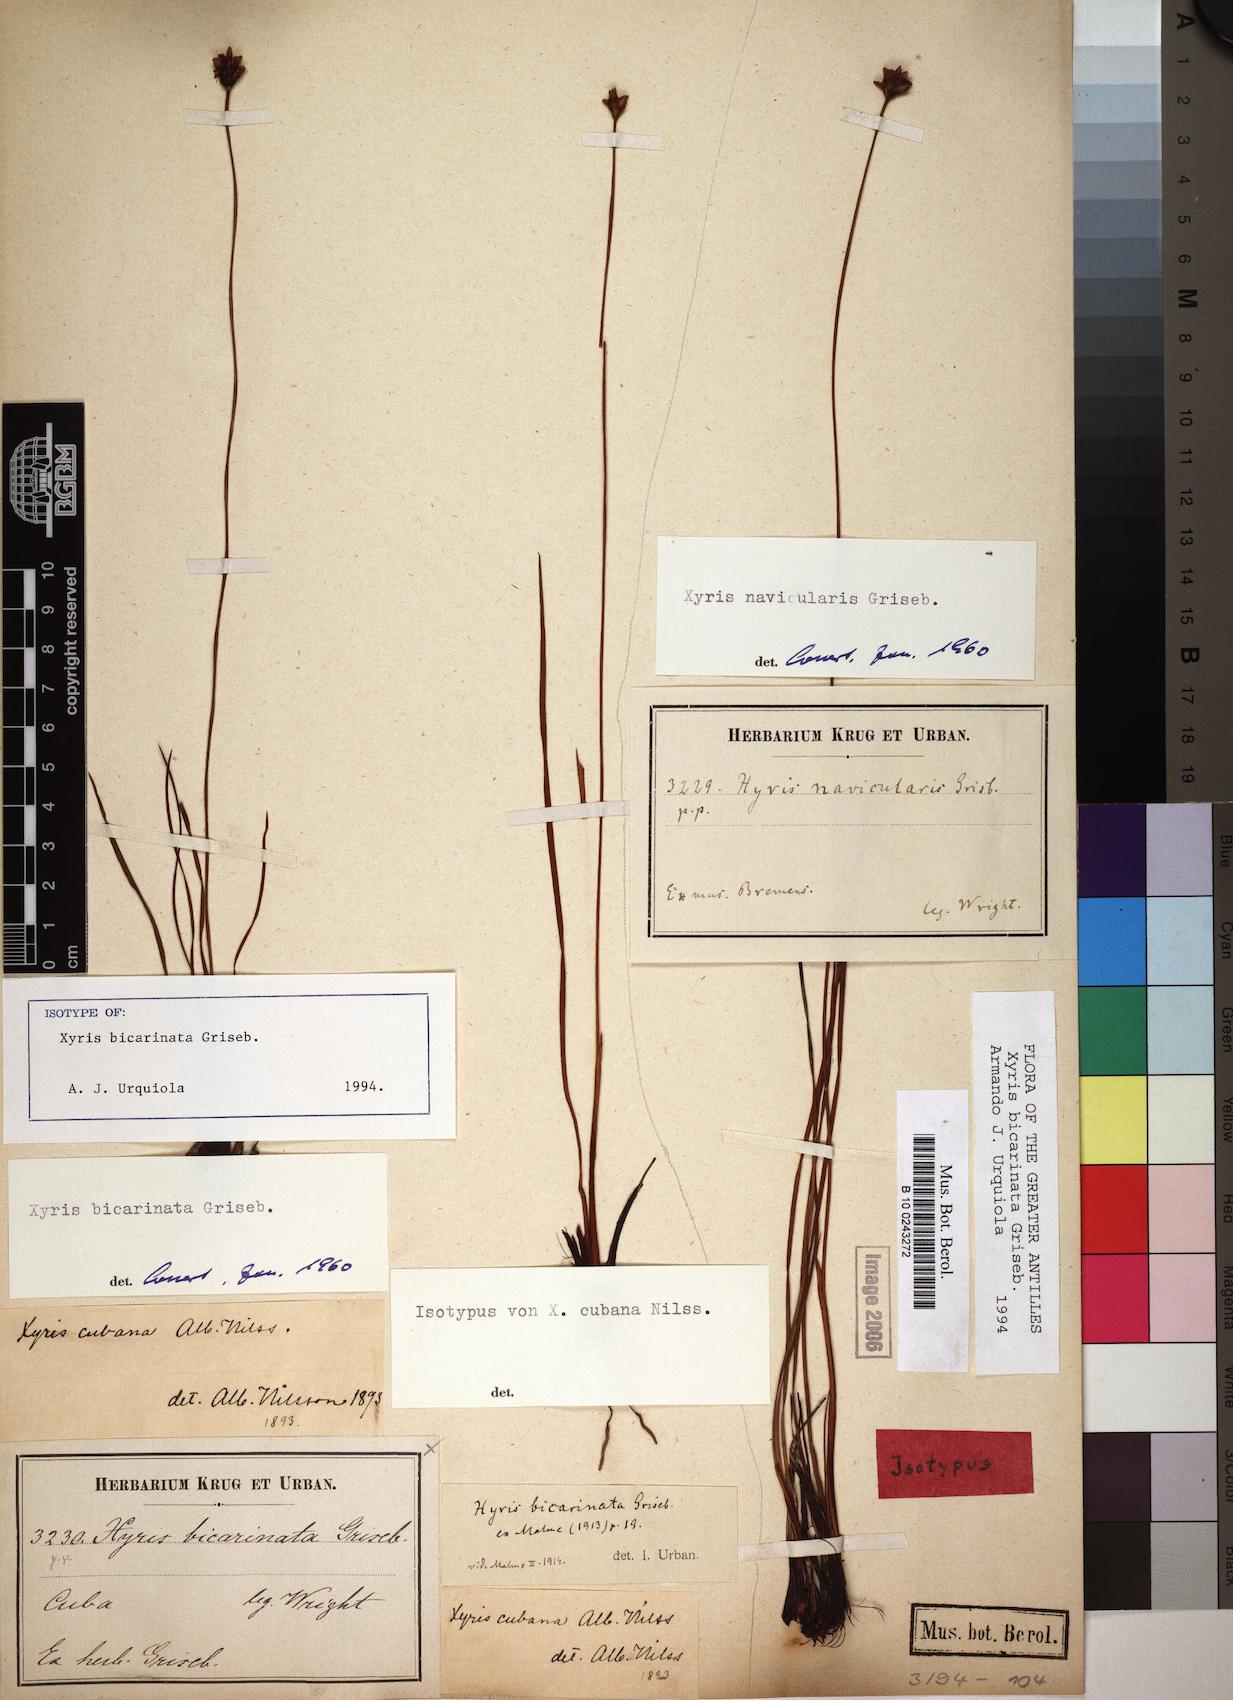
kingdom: Plantae
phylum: Tracheophyta
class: Liliopsida
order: Poales
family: Xyridaceae
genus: Xyris
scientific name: Xyris bicarinata
